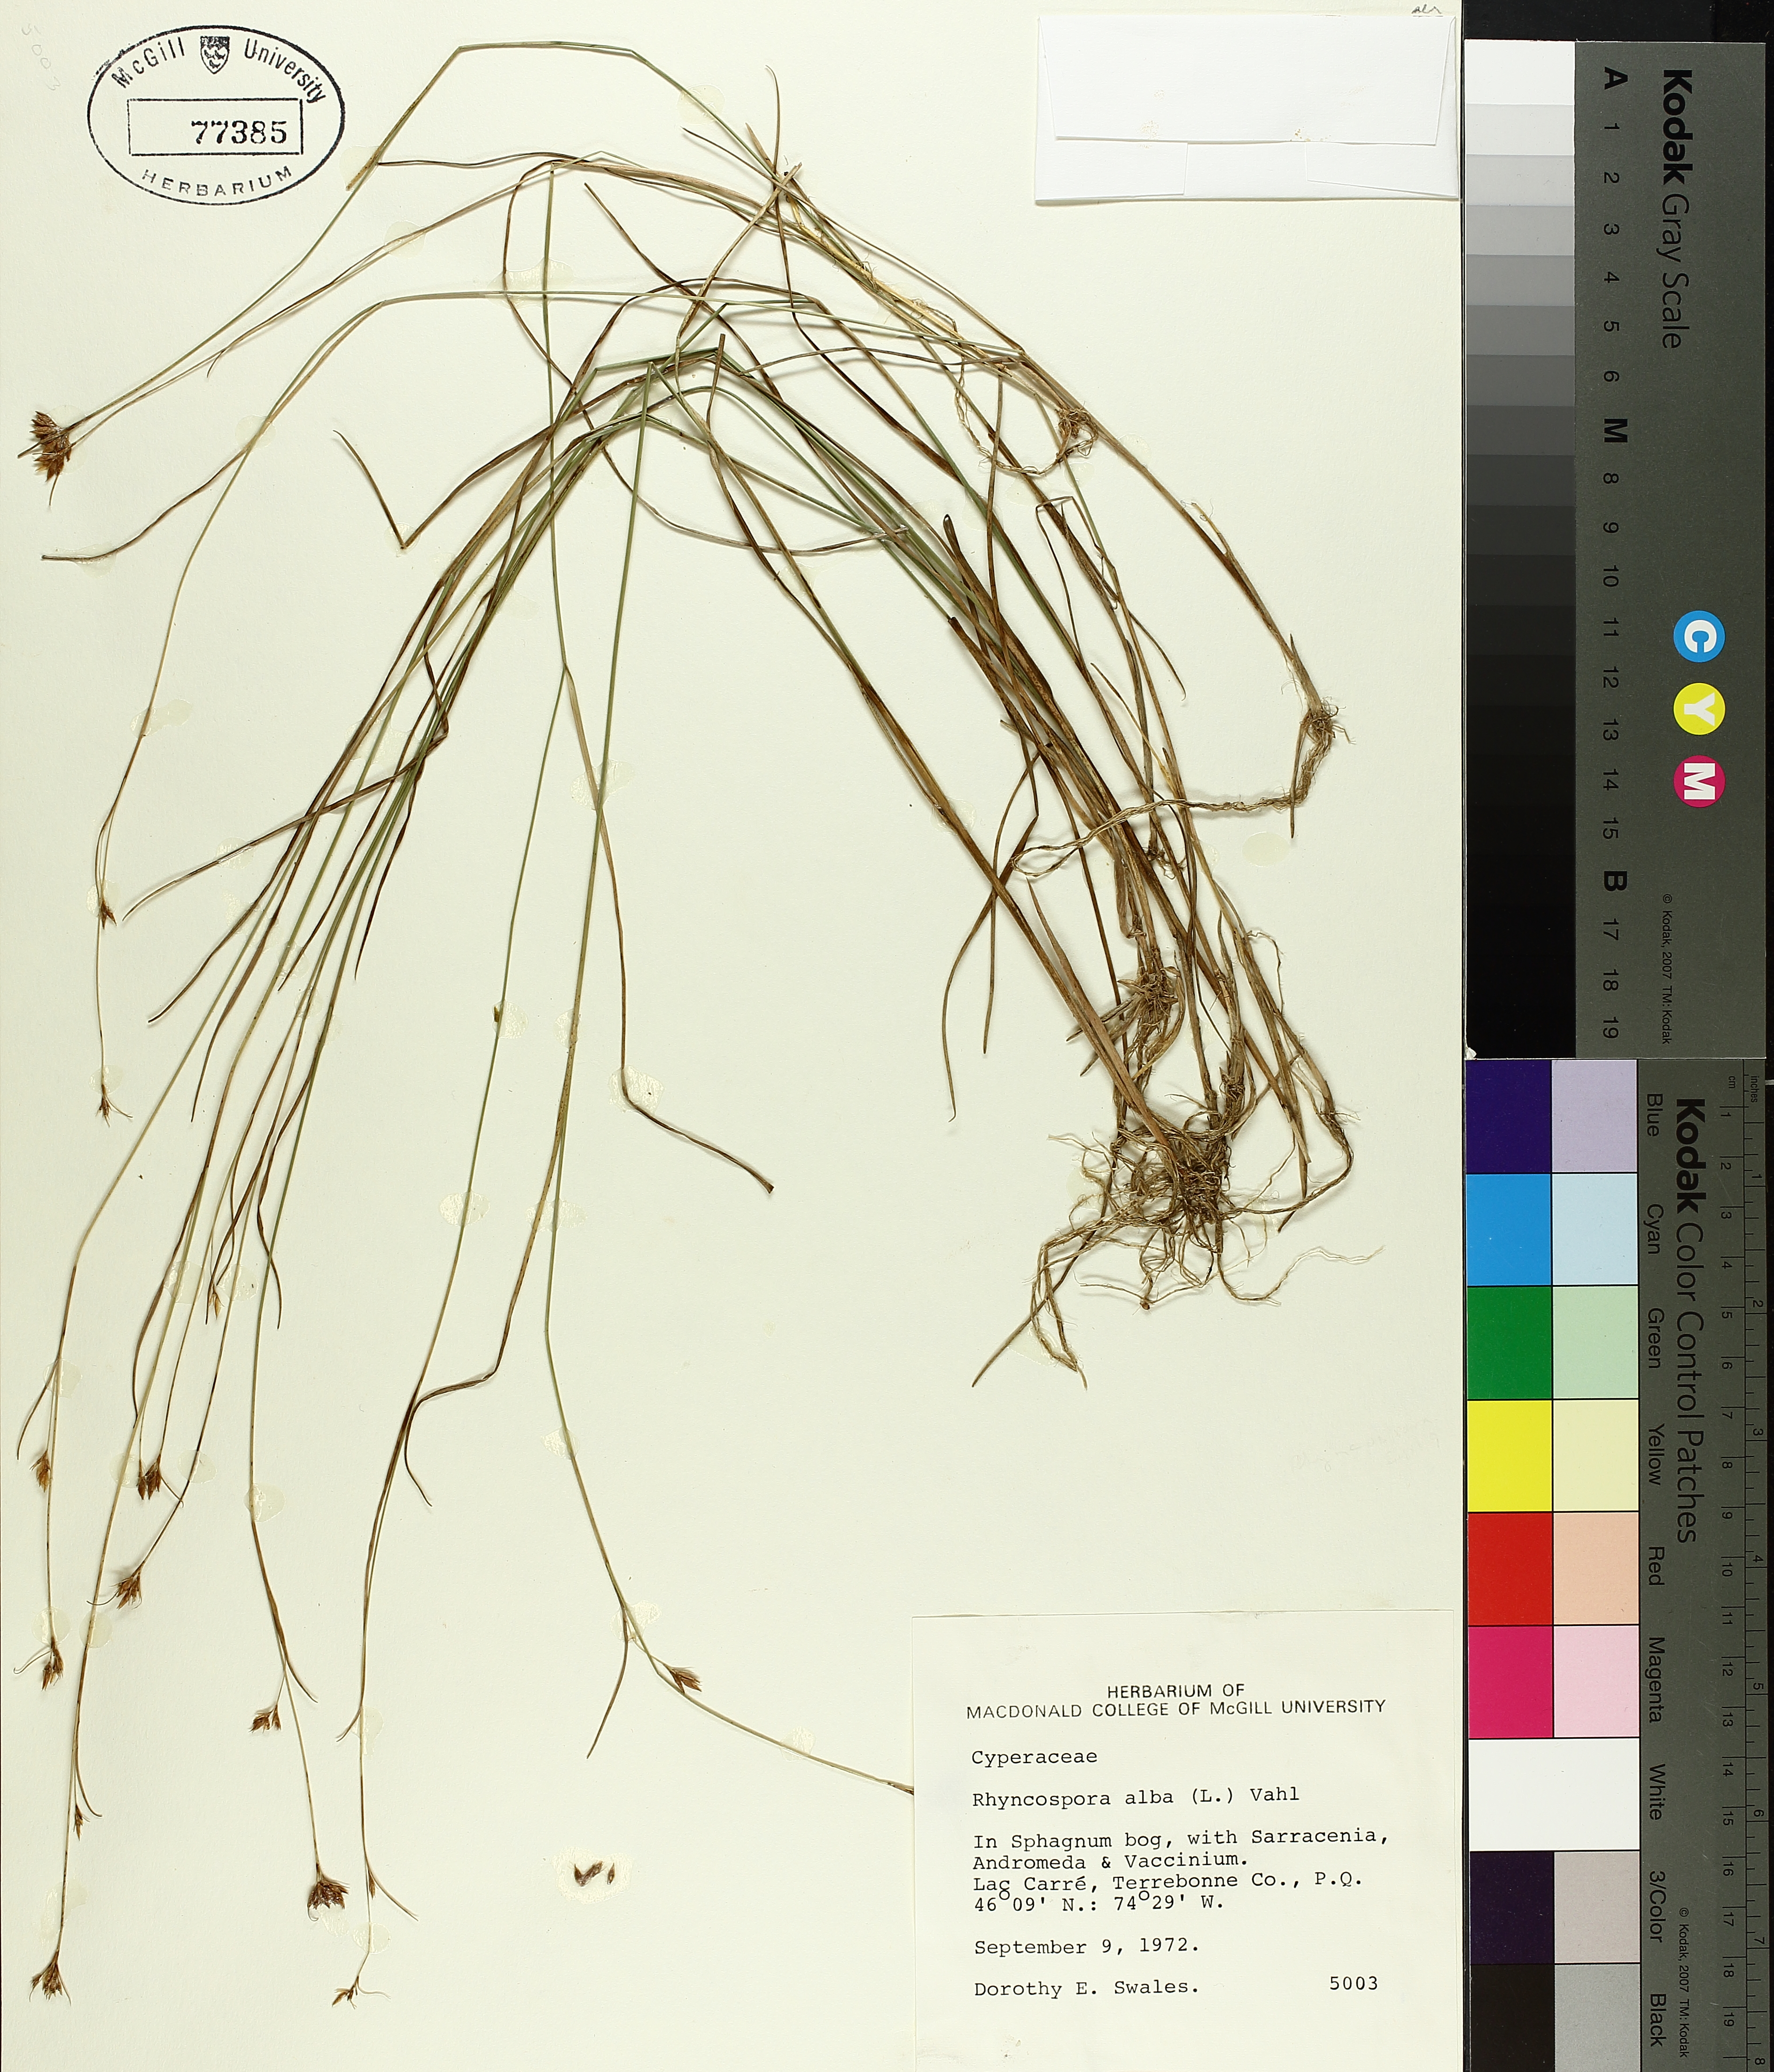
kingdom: Plantae
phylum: Tracheophyta
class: Liliopsida
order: Poales
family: Cyperaceae
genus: Rhynchospora
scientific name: Rhynchospora alba
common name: White beak-sedge
